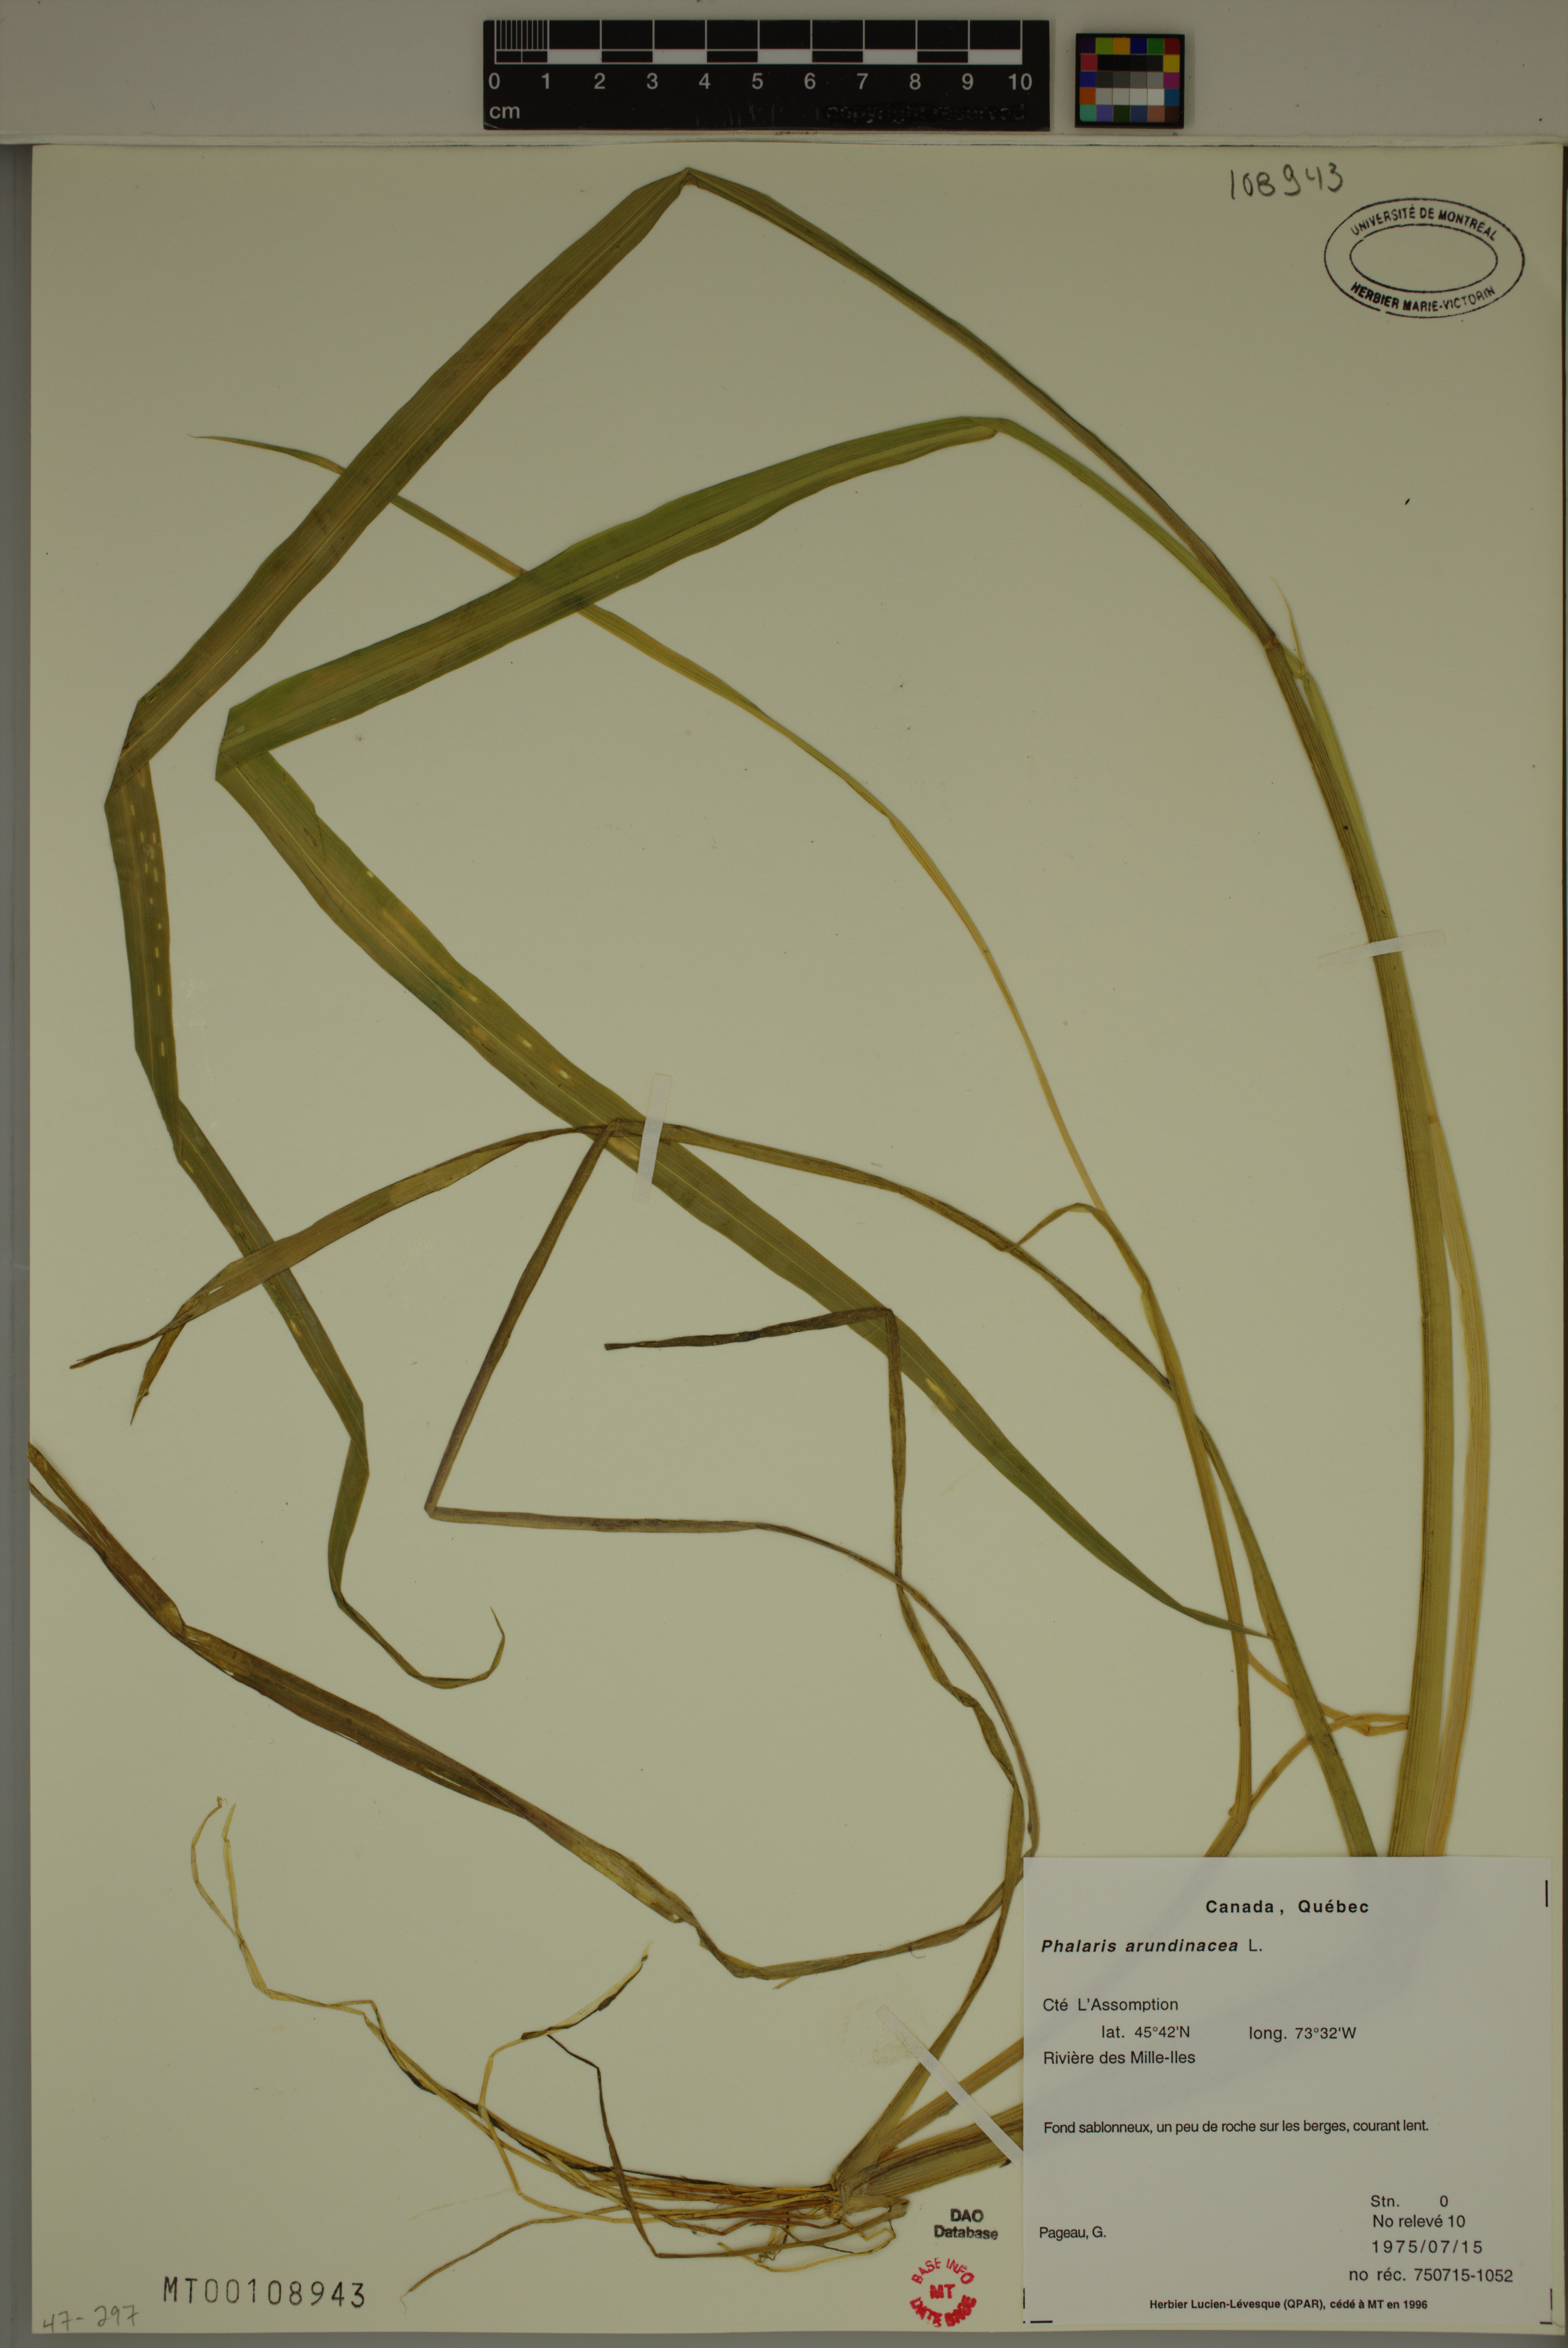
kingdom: Plantae
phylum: Tracheophyta
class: Liliopsida
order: Poales
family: Poaceae
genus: Phalaris
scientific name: Phalaris arundinacea
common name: Reed canary-grass
